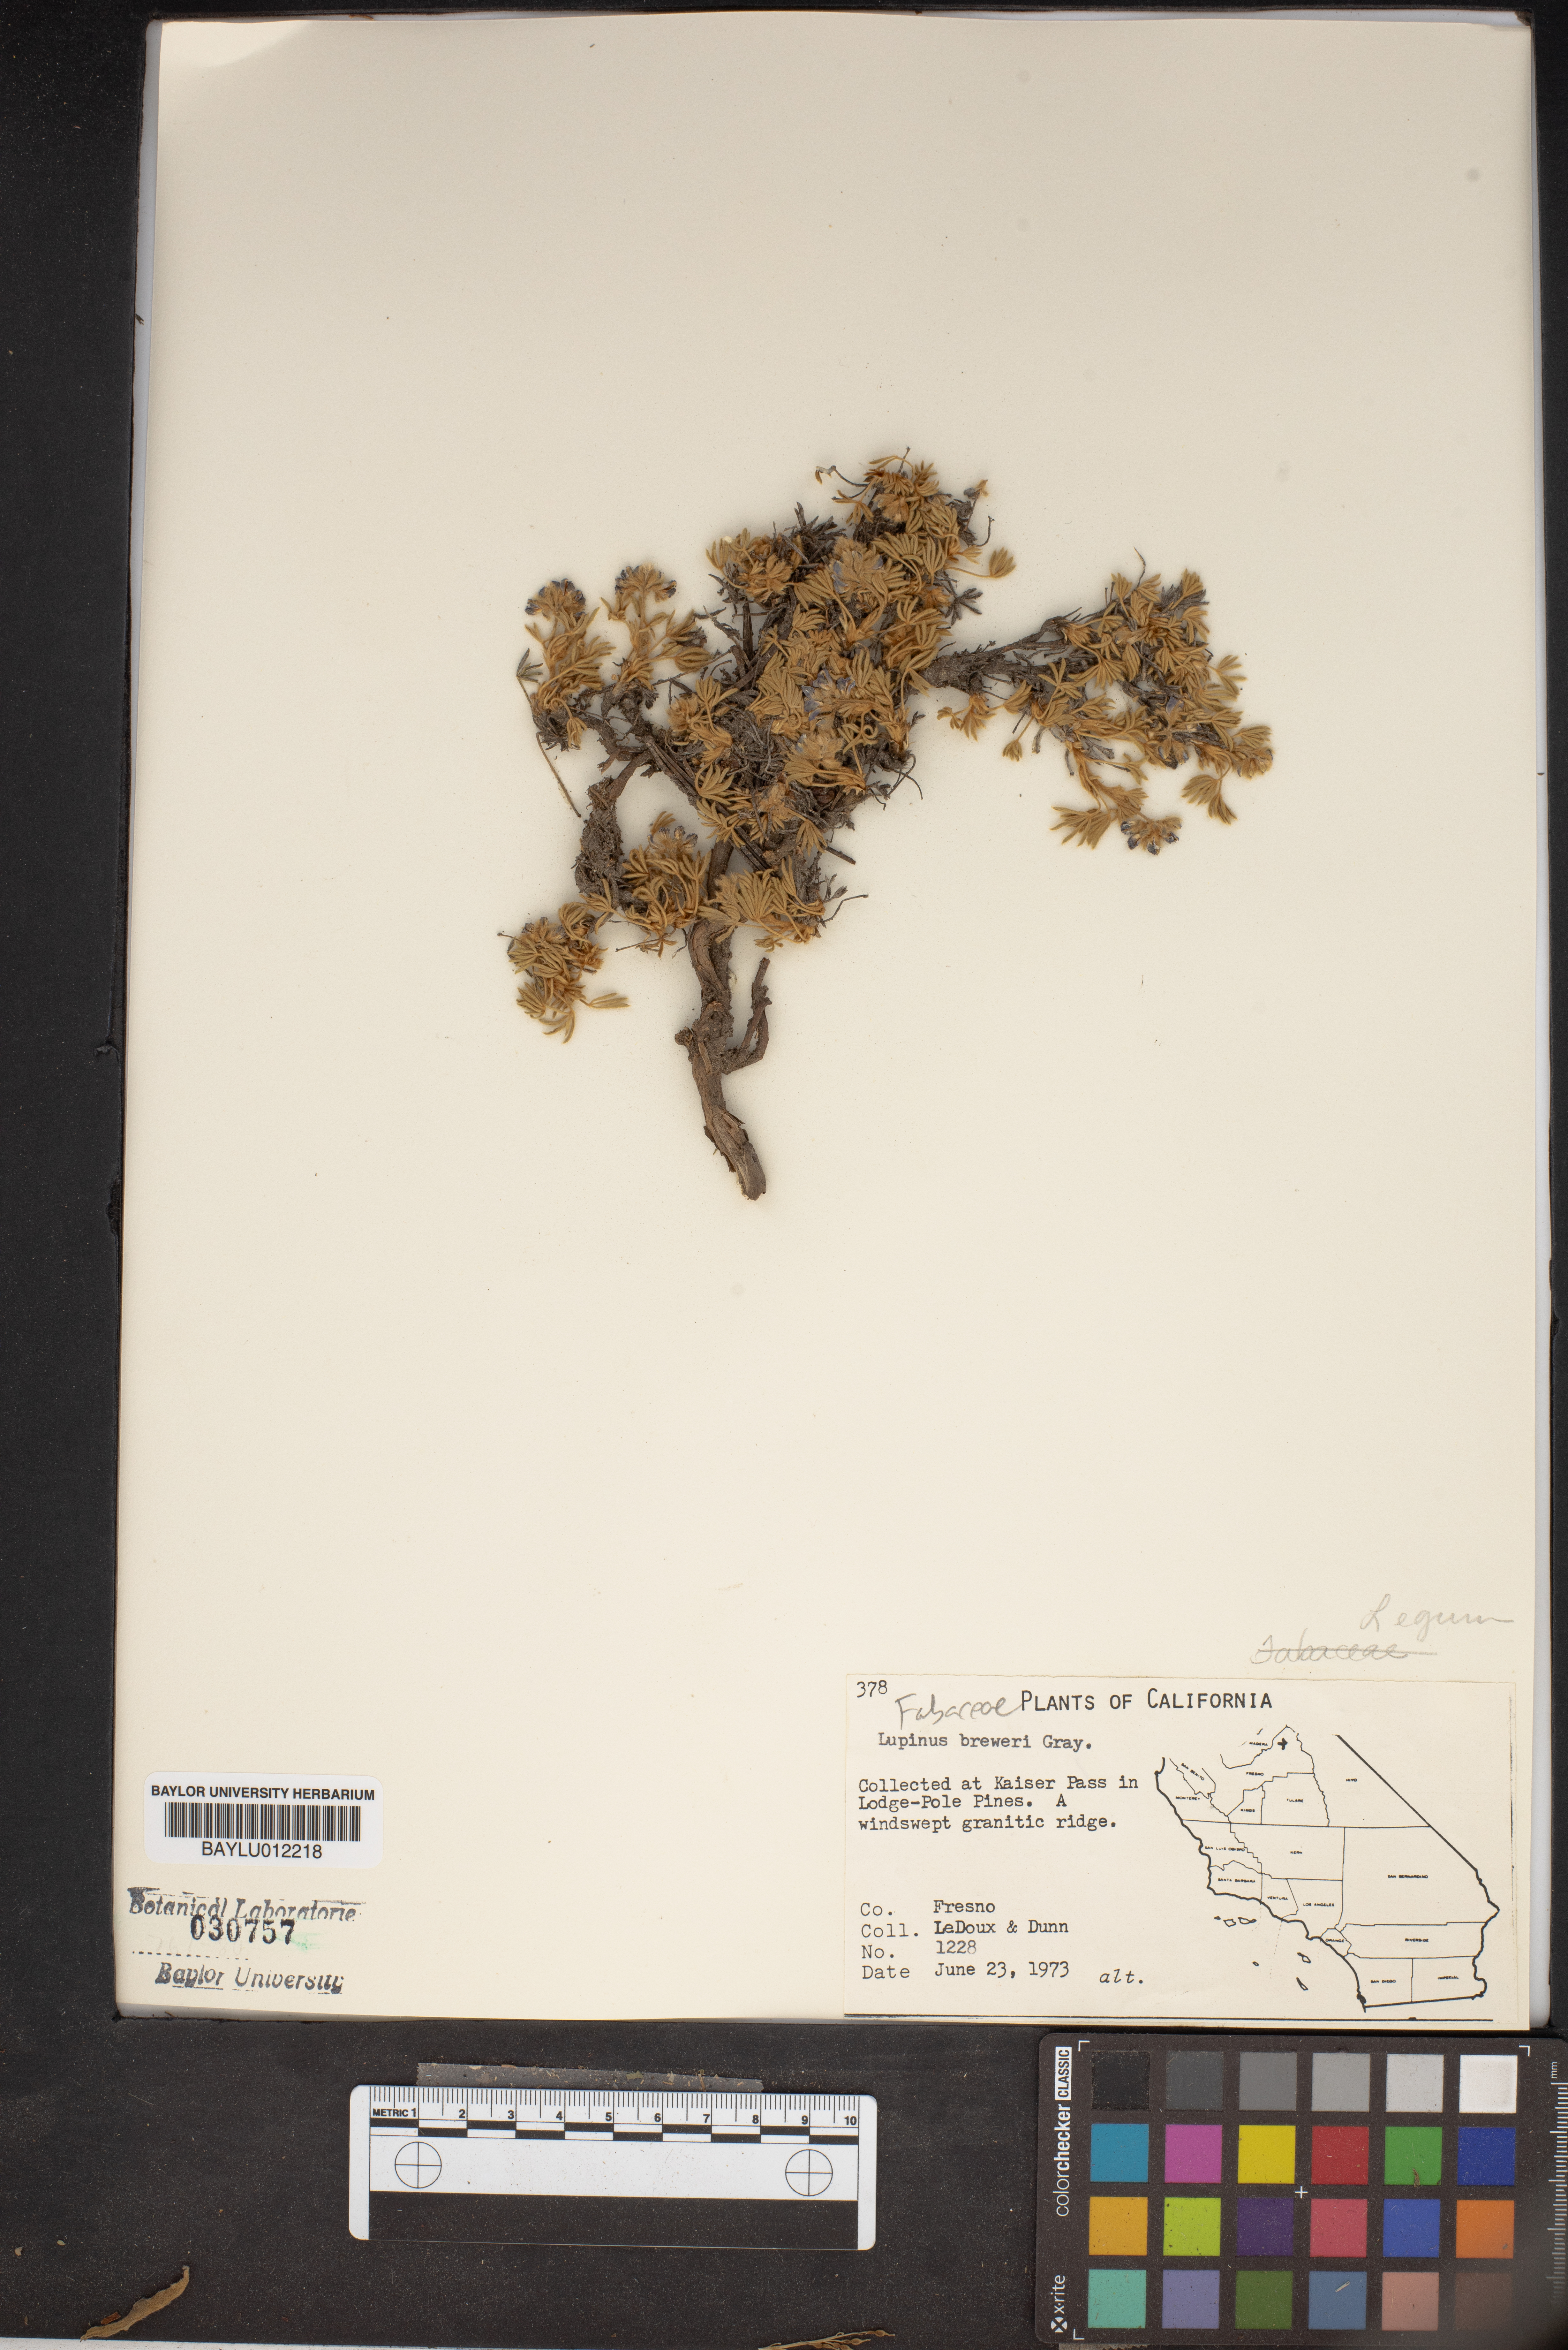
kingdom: Plantae
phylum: Tracheophyta
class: Magnoliopsida
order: Fabales
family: Fabaceae
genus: Lupinus
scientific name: Lupinus breweri
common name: Brewer's lupine
